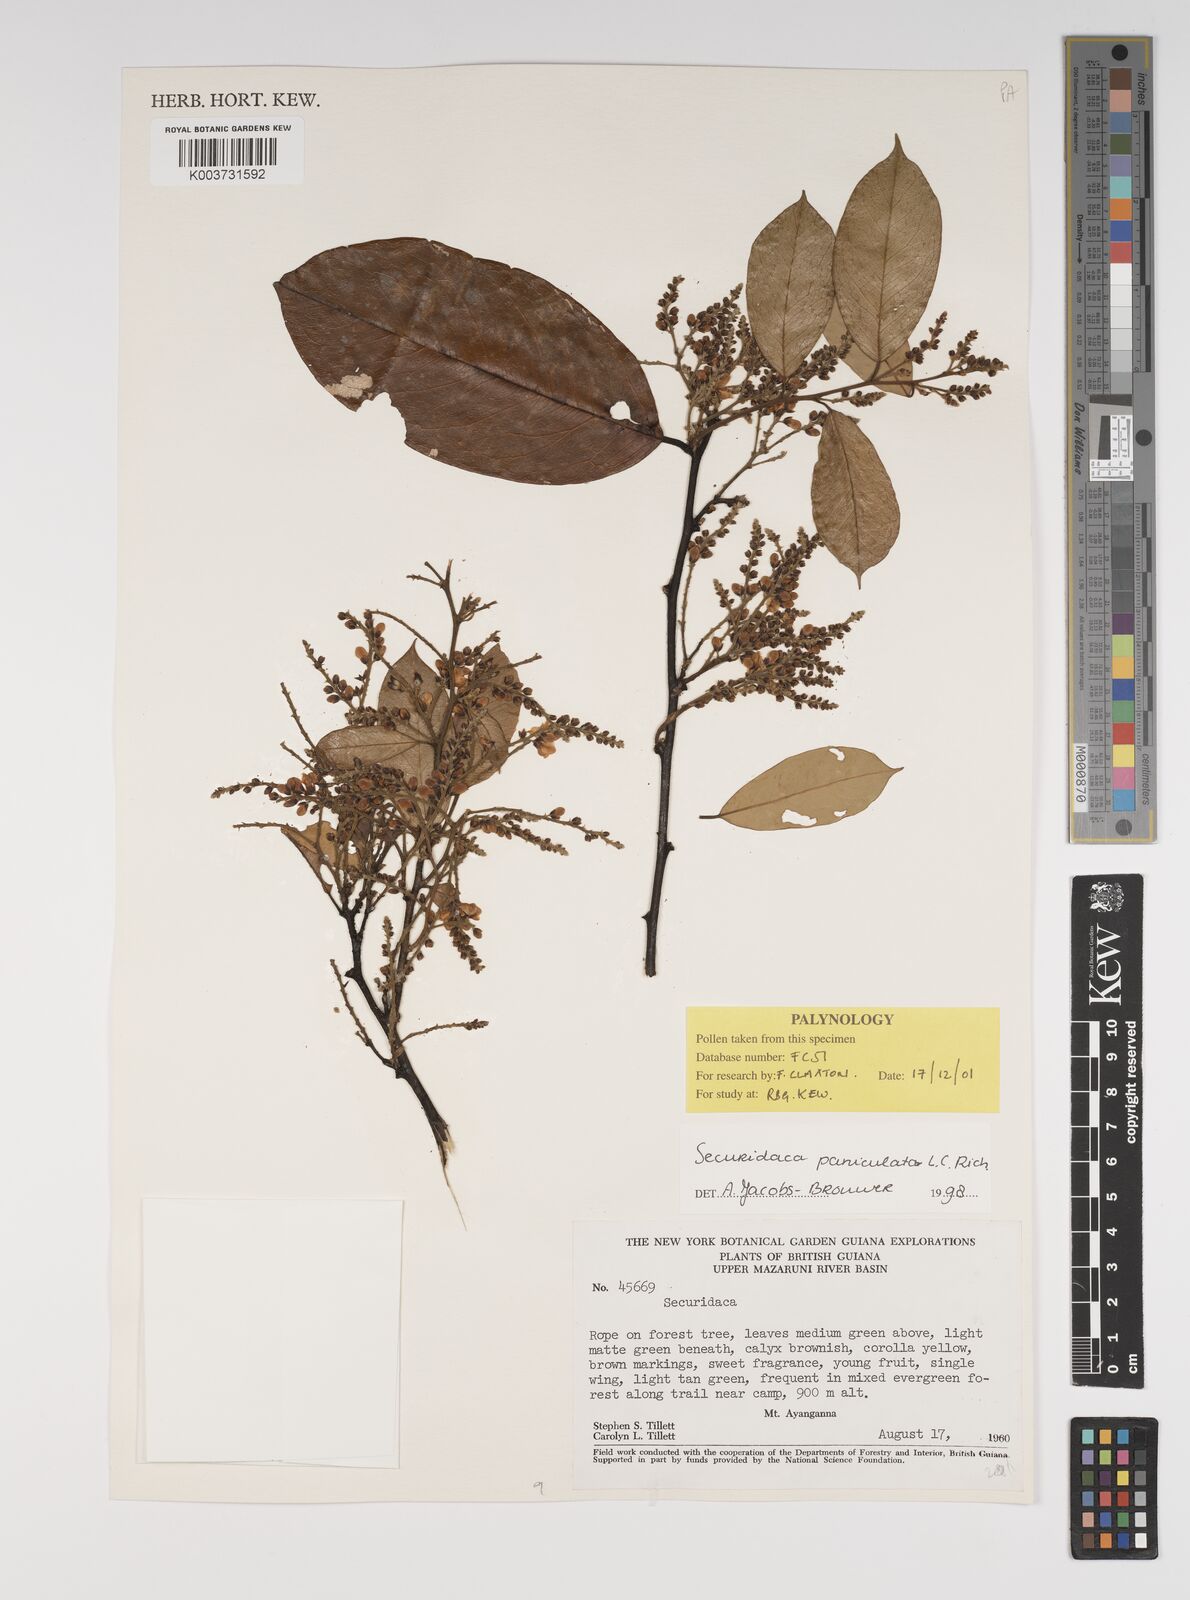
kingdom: Plantae
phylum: Tracheophyta
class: Magnoliopsida
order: Fabales
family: Polygalaceae
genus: Securidaca
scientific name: Securidaca paniculata
